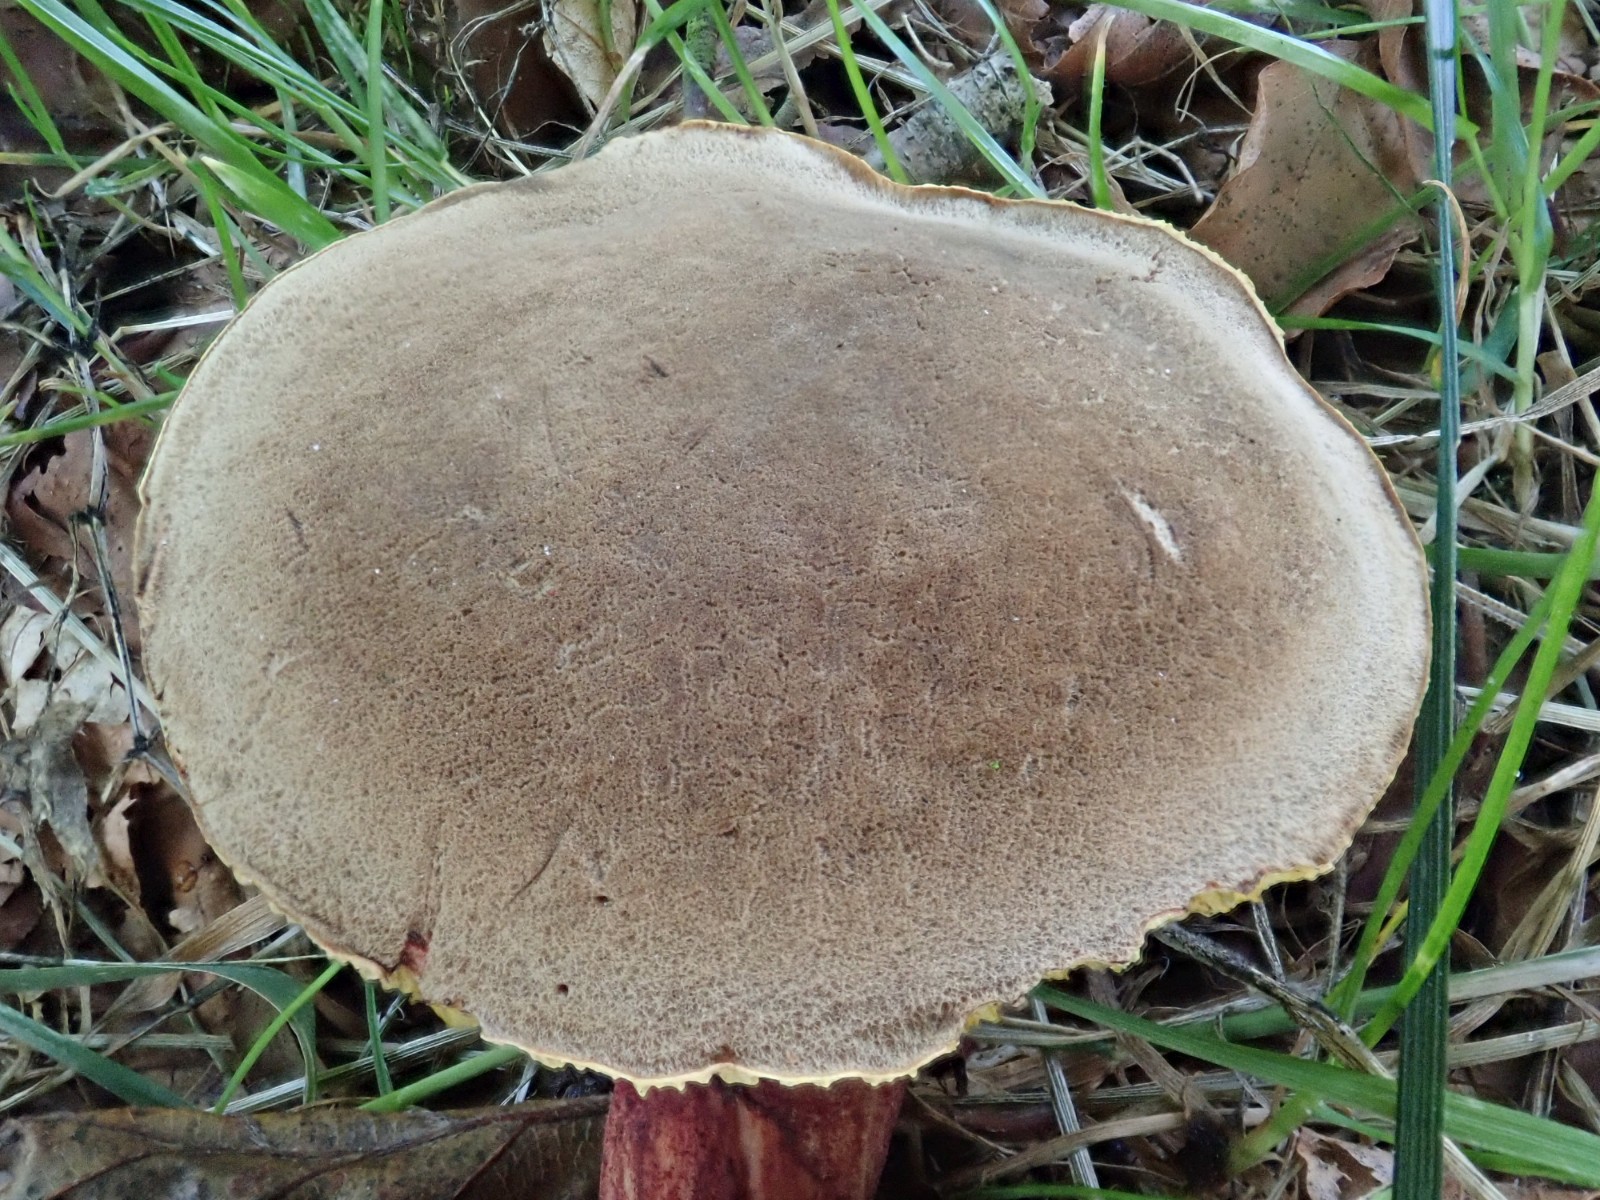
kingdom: Fungi
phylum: Basidiomycota
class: Agaricomycetes
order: Boletales
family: Boletaceae
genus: Xerocomellus
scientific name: Xerocomellus chrysenteron
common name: rødsprukken rørhat
